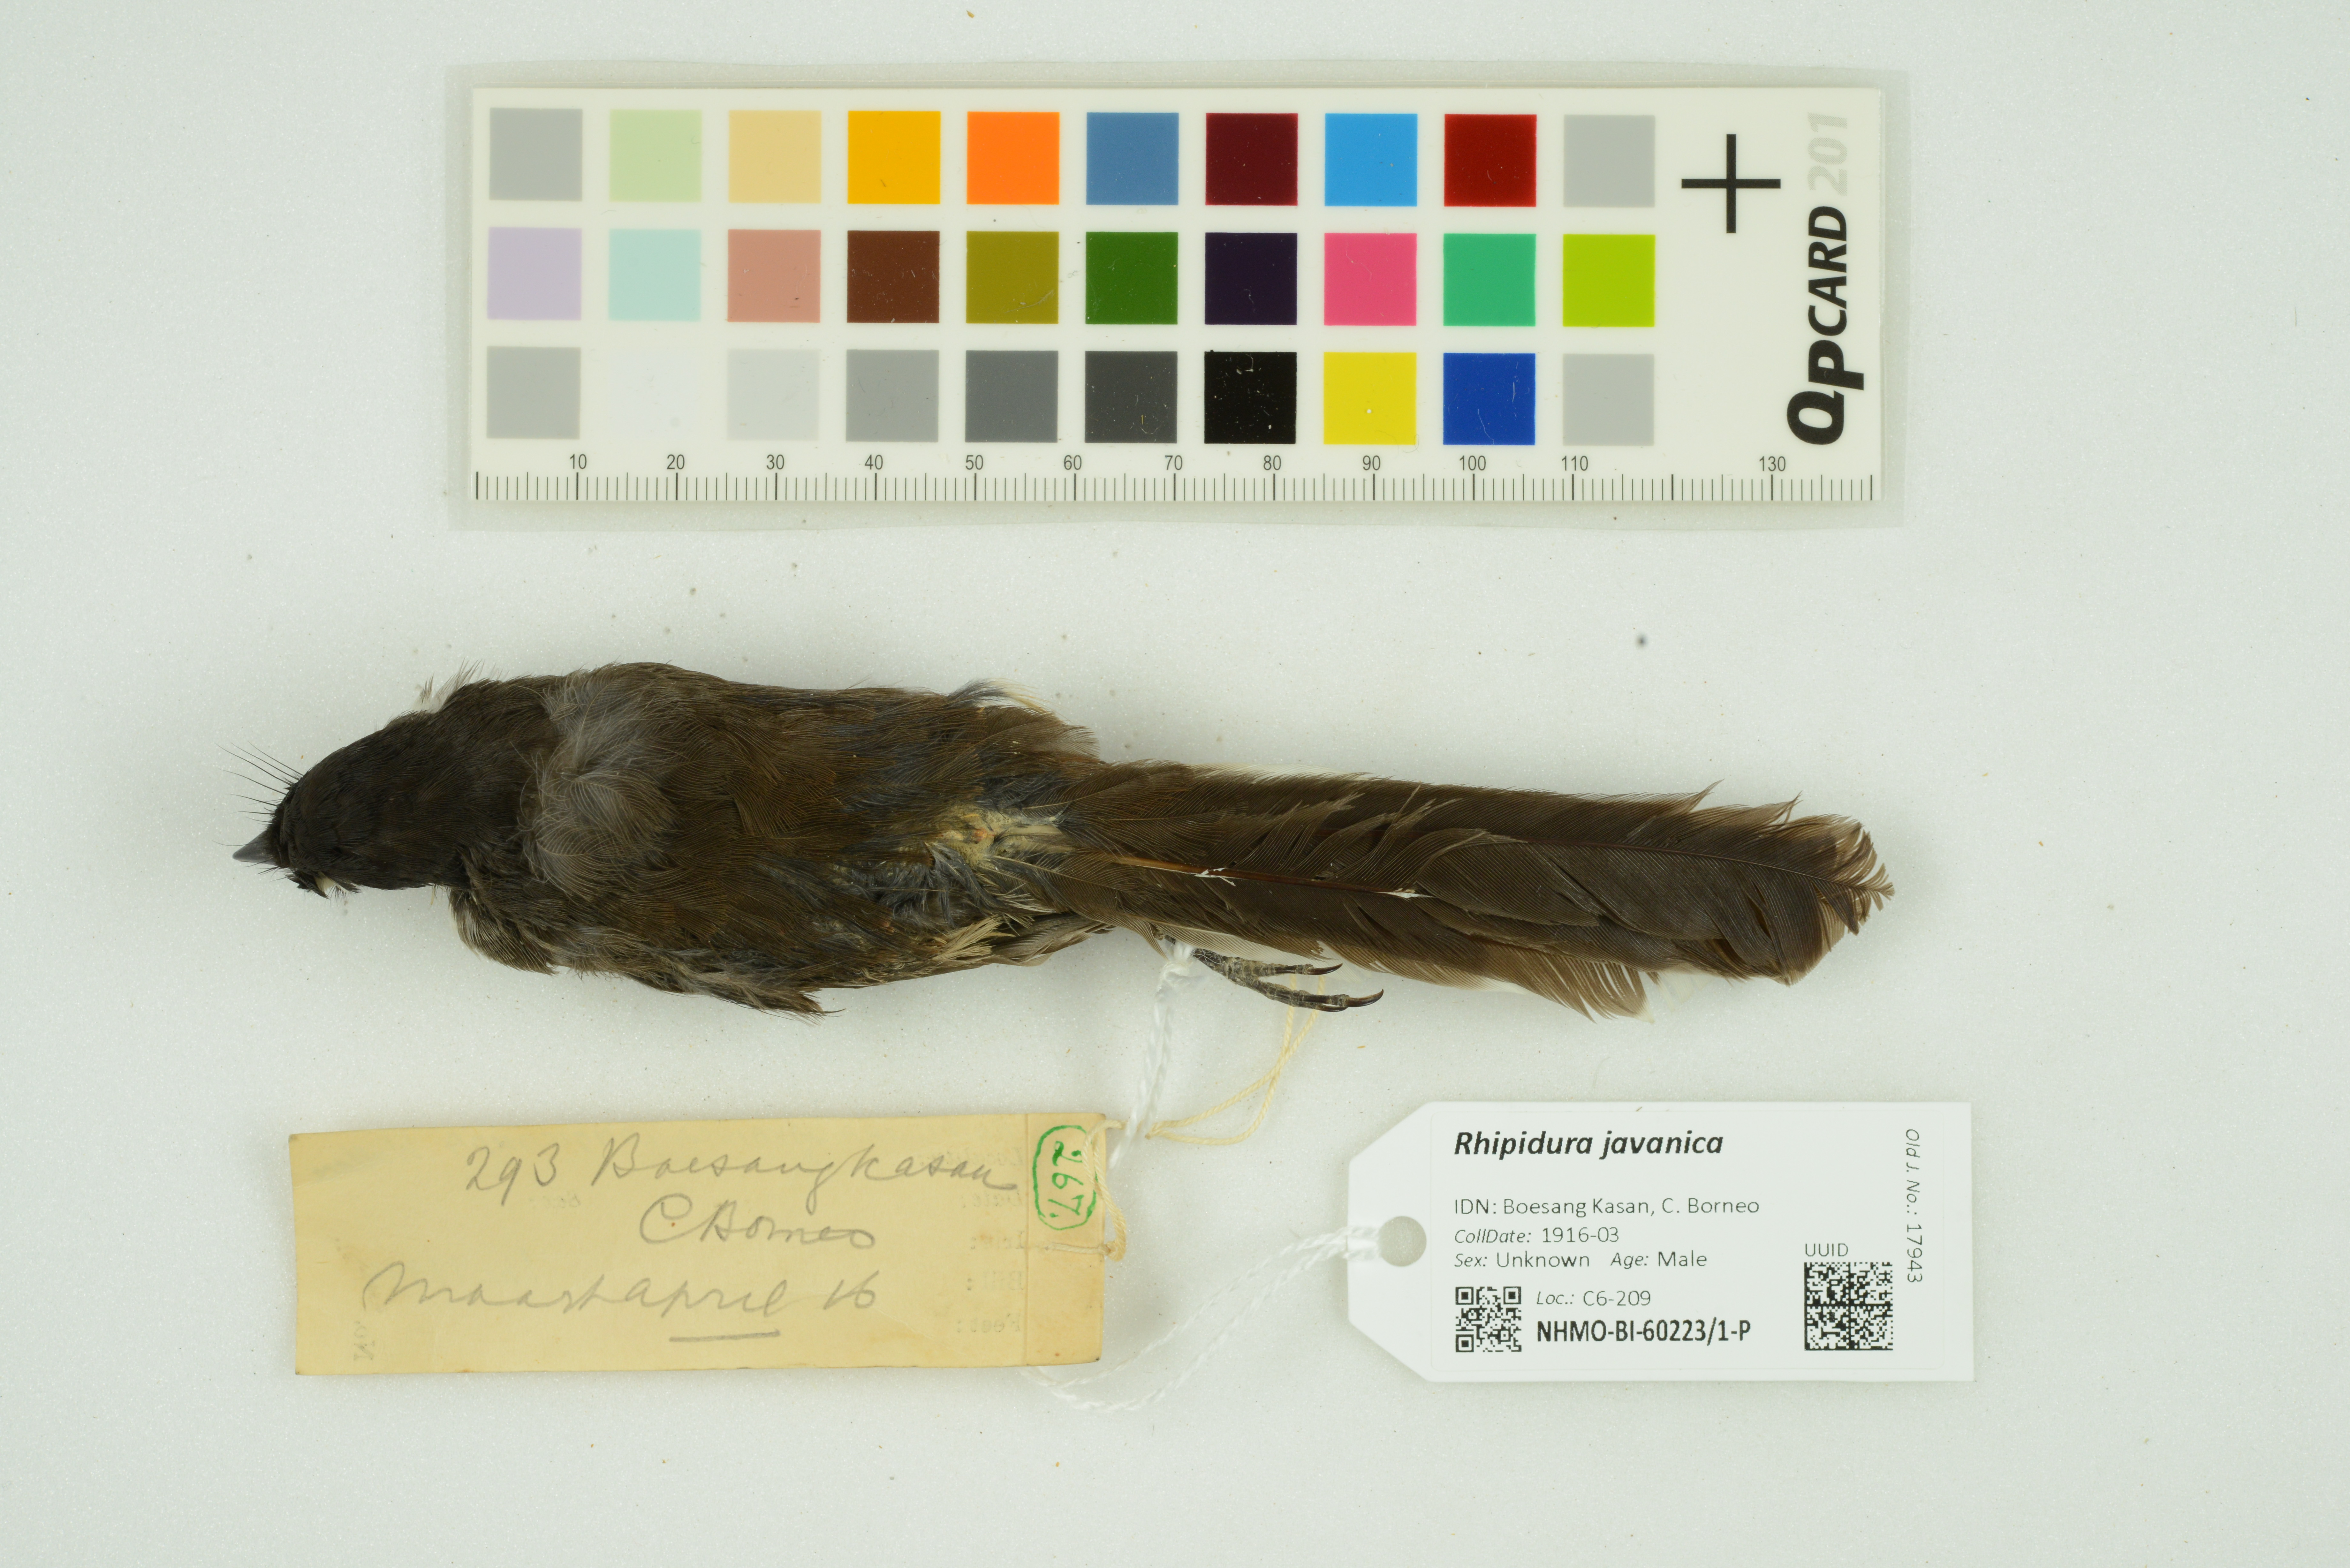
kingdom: Animalia
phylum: Chordata
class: Aves
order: Passeriformes
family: Rhipiduridae
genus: Rhipidura
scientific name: Rhipidura javanica
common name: Pied fantail
